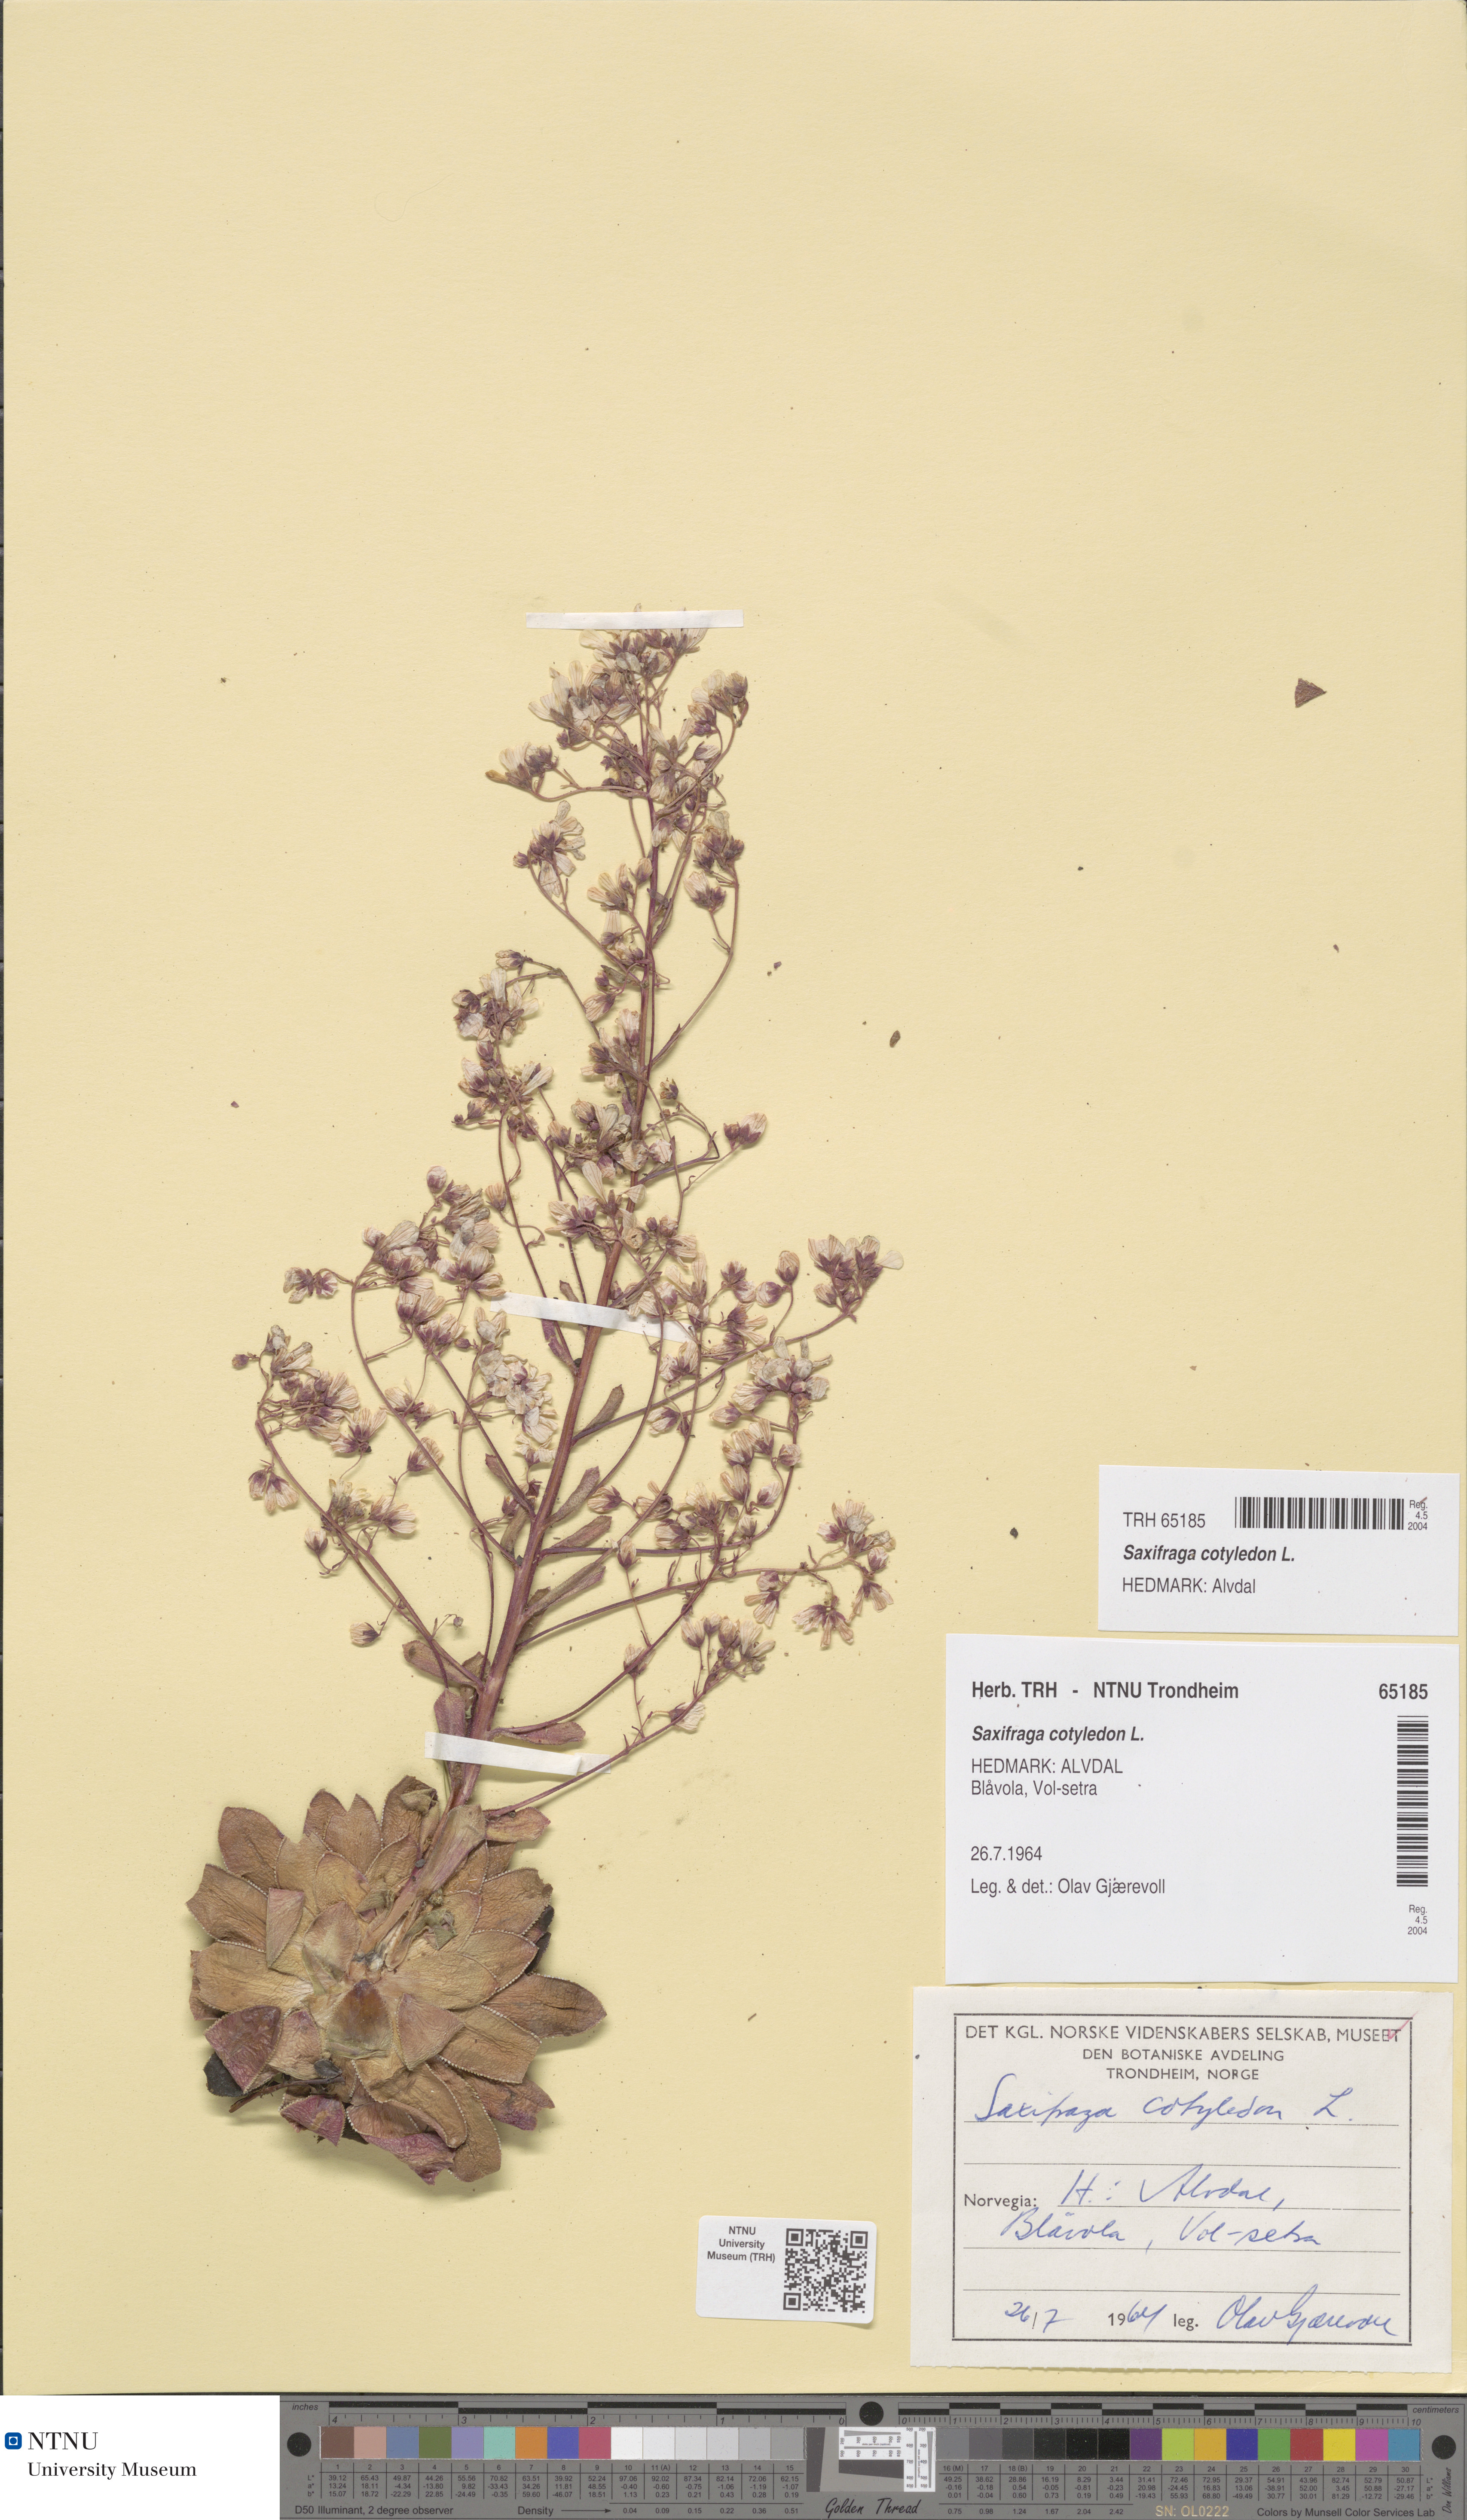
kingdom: Plantae
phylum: Tracheophyta
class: Magnoliopsida
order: Saxifragales
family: Saxifragaceae
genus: Saxifraga
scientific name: Saxifraga cotyledon
